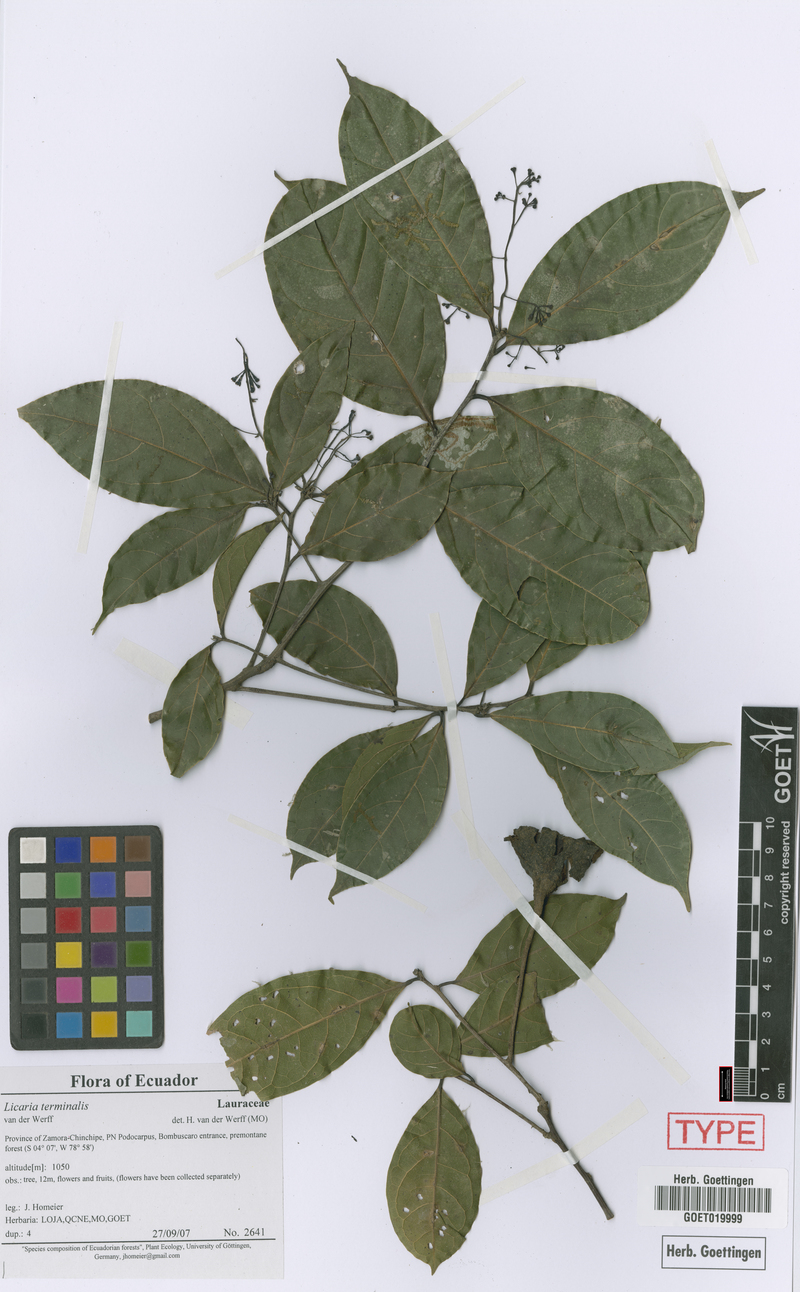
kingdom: Plantae
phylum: Tracheophyta
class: Magnoliopsida
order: Laurales
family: Lauraceae
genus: Licaria
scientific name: Licaria terminalis
